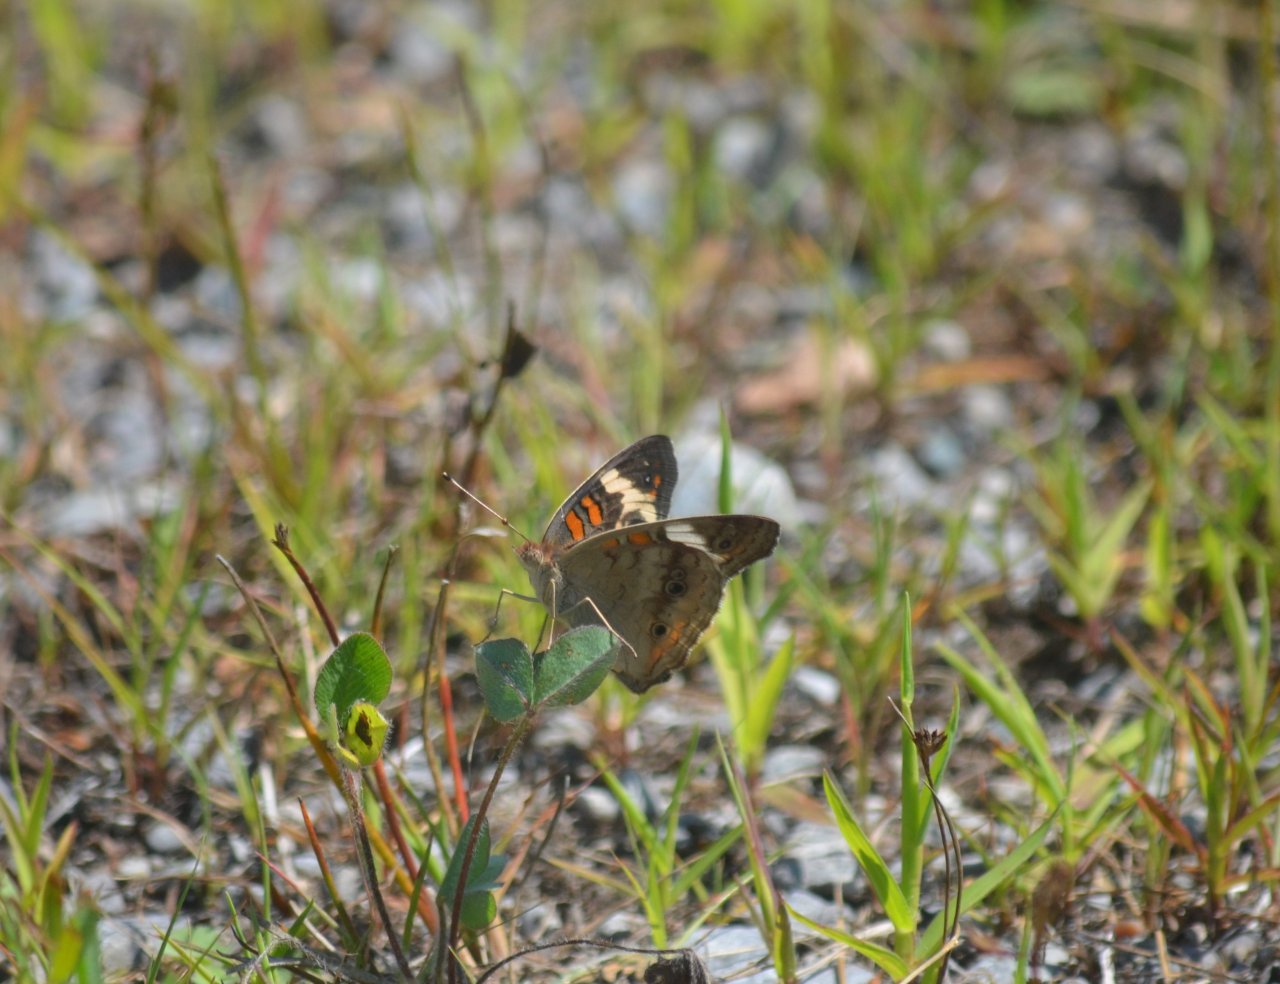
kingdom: Animalia
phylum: Arthropoda
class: Insecta
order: Lepidoptera
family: Nymphalidae
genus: Junonia
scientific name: Junonia coenia
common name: Common Buckeye
